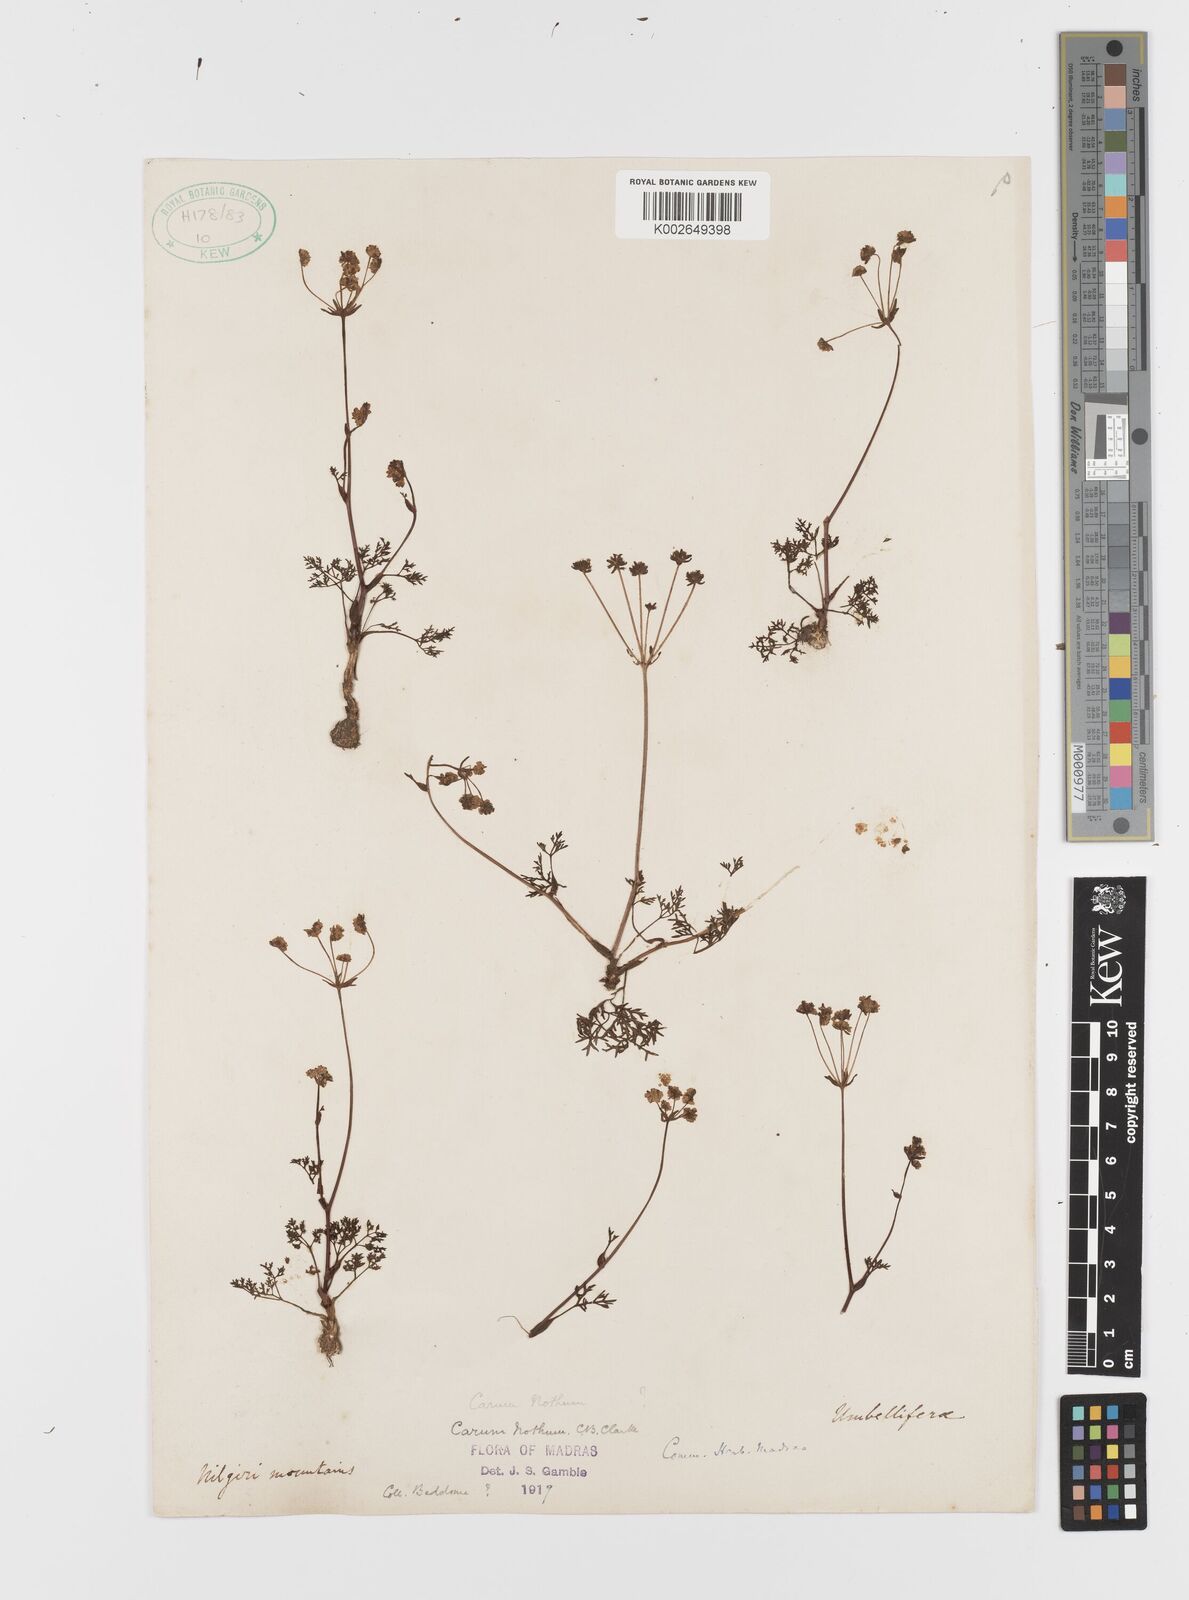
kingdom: Plantae
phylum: Tracheophyta
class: Magnoliopsida
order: Apiales
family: Apiaceae
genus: Bunium
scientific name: Bunium nothum
